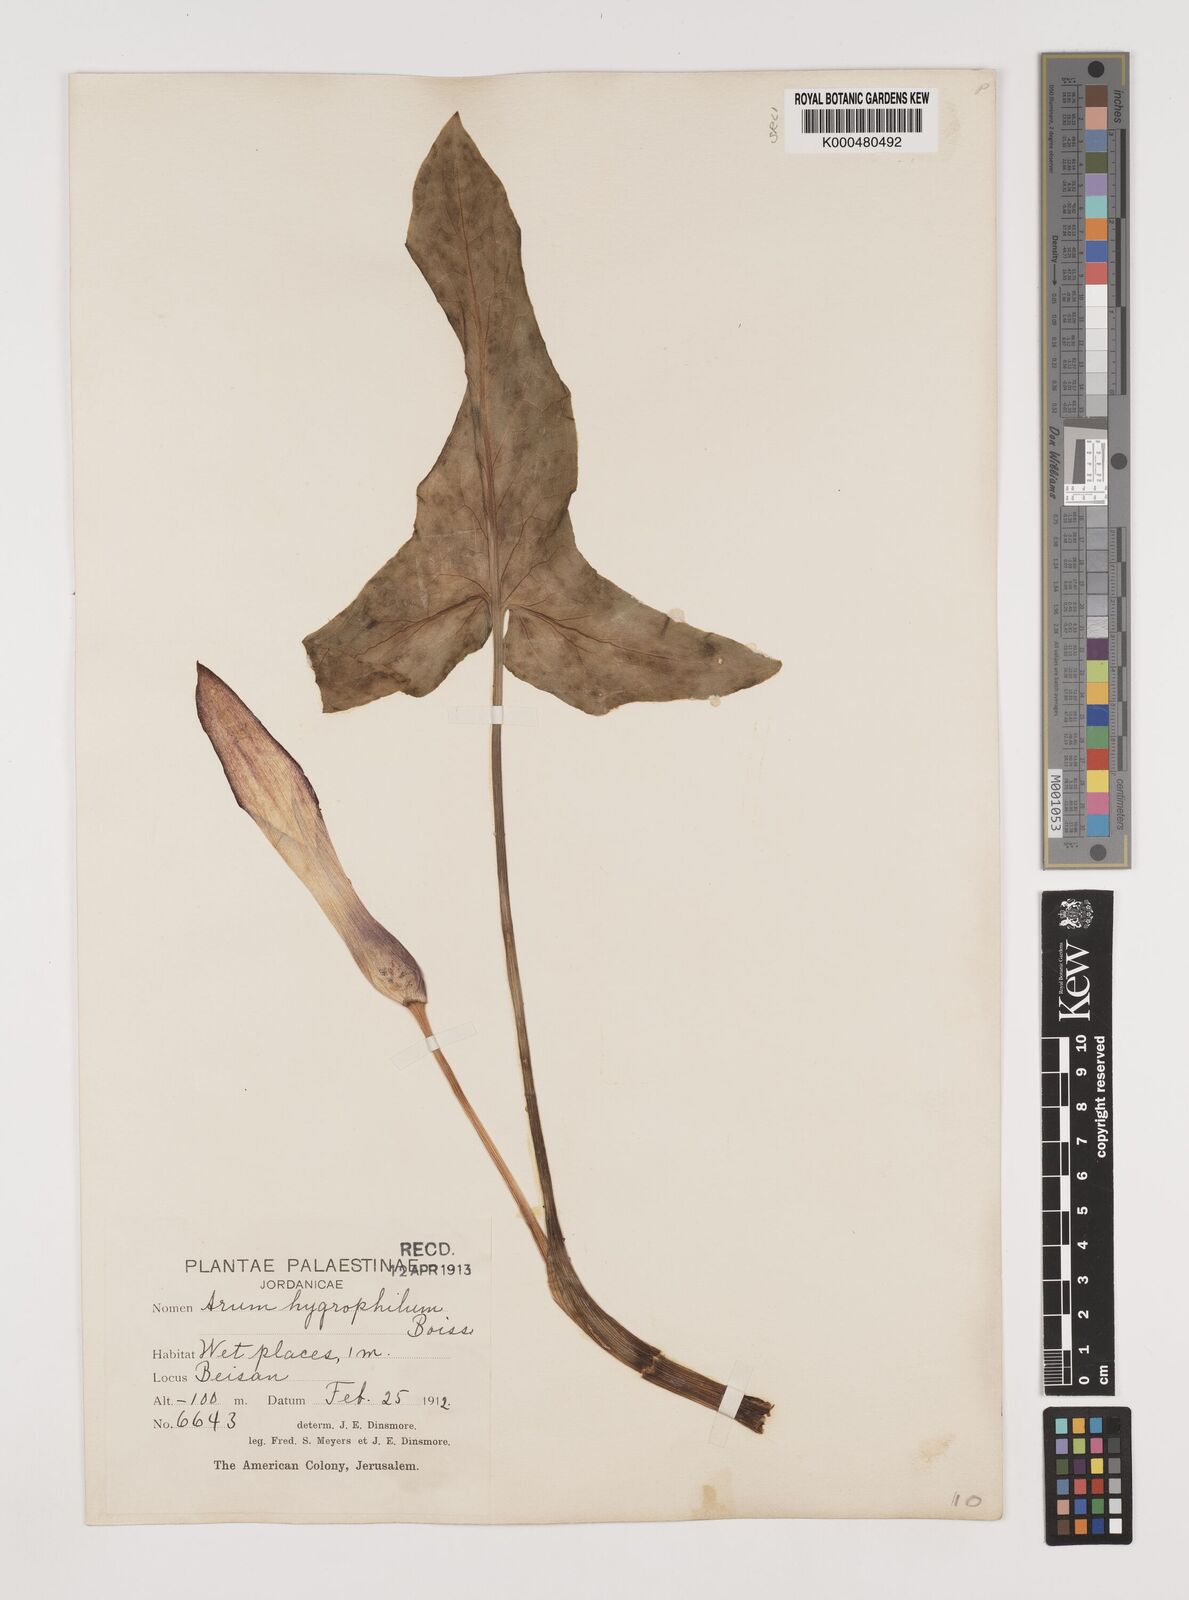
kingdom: Plantae
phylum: Tracheophyta
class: Liliopsida
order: Alismatales
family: Araceae
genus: Arum
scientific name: Arum hygrophilum
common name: Water arum
